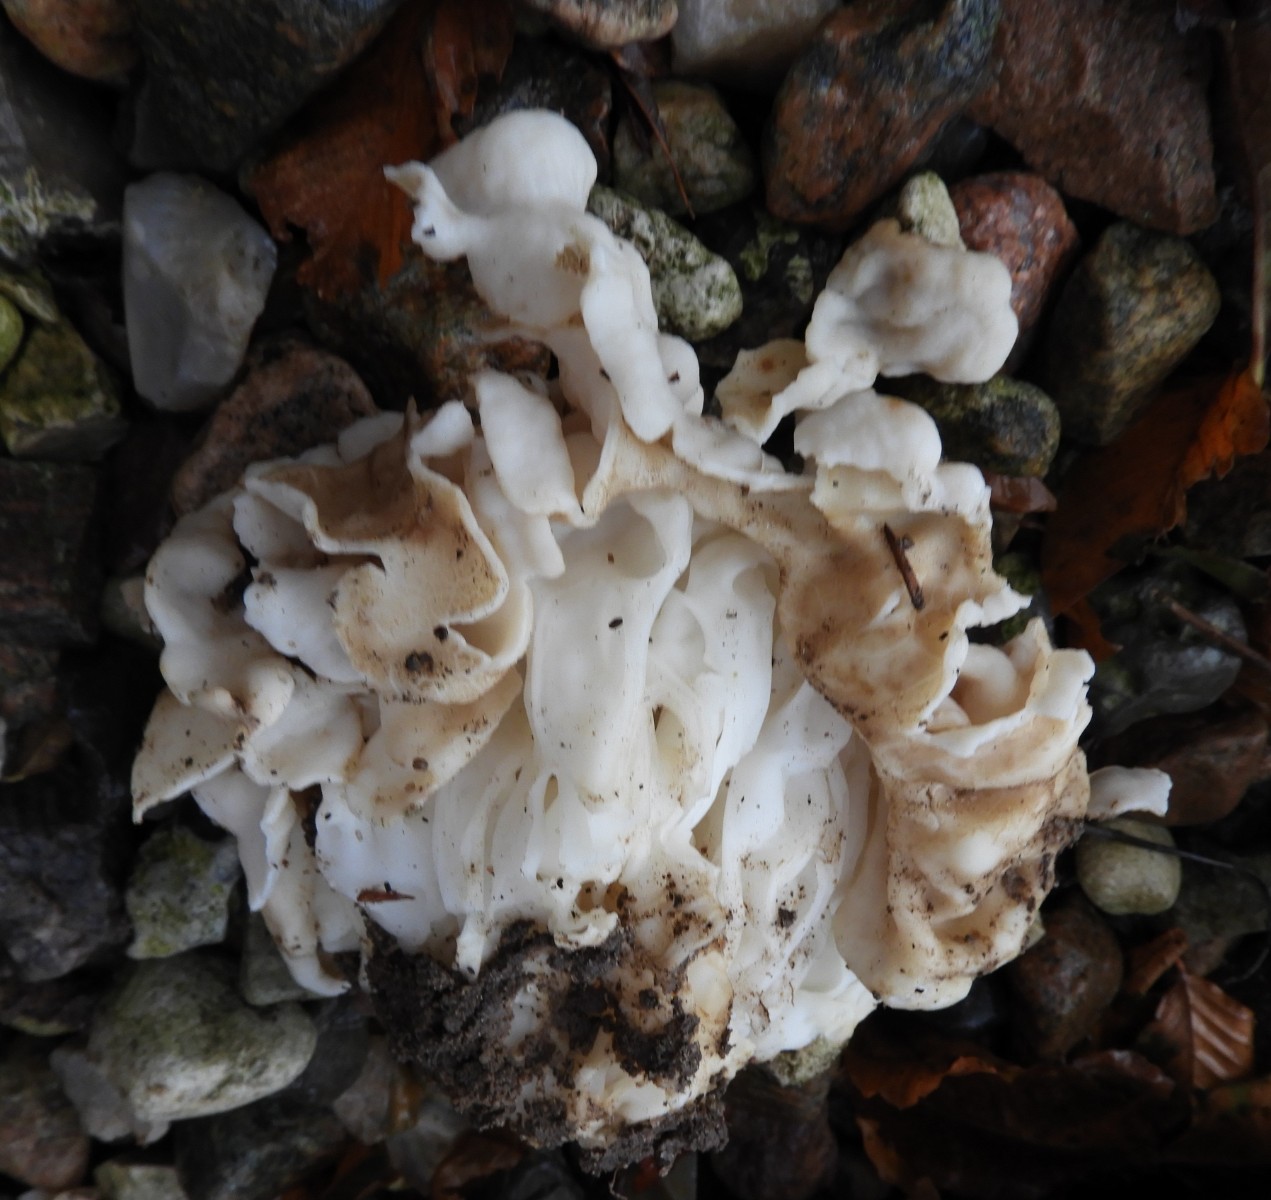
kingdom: Fungi
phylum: Ascomycota
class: Pezizomycetes
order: Pezizales
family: Helvellaceae
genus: Helvella
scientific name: Helvella crispa
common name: kruset foldhat
